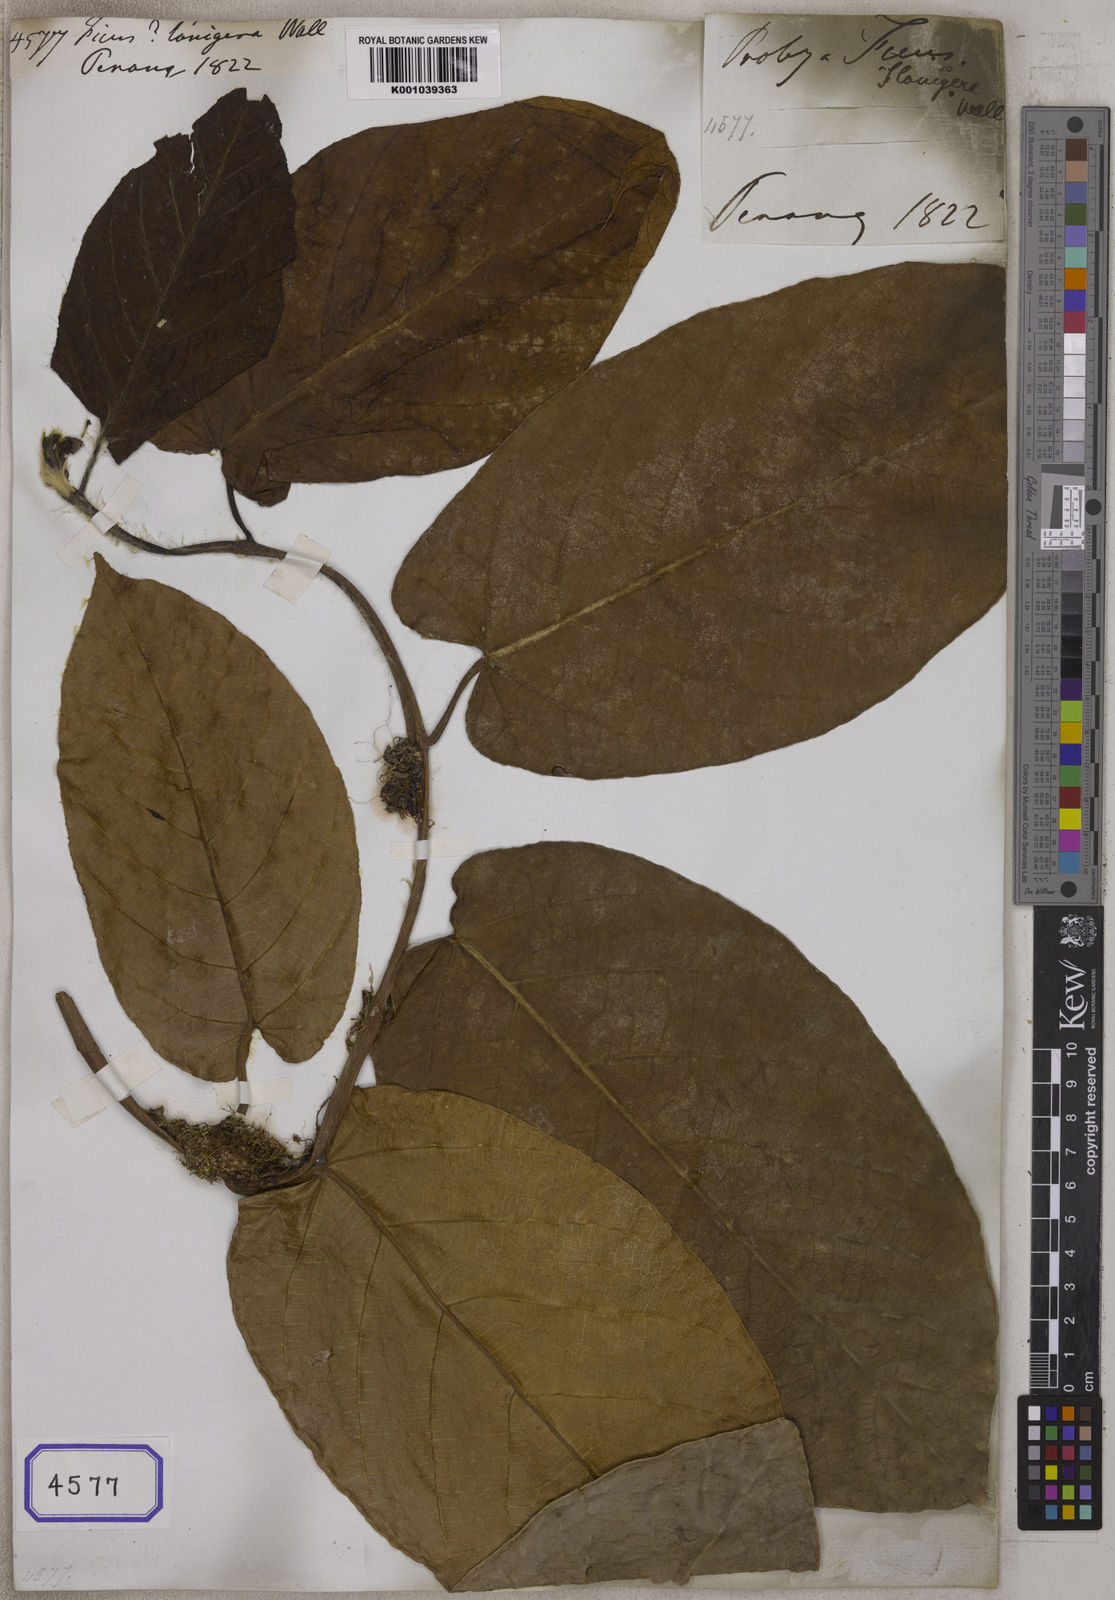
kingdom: Plantae
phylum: Tracheophyta
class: Magnoliopsida
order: Rosales
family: Moraceae
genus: Ficus
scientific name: Ficus
